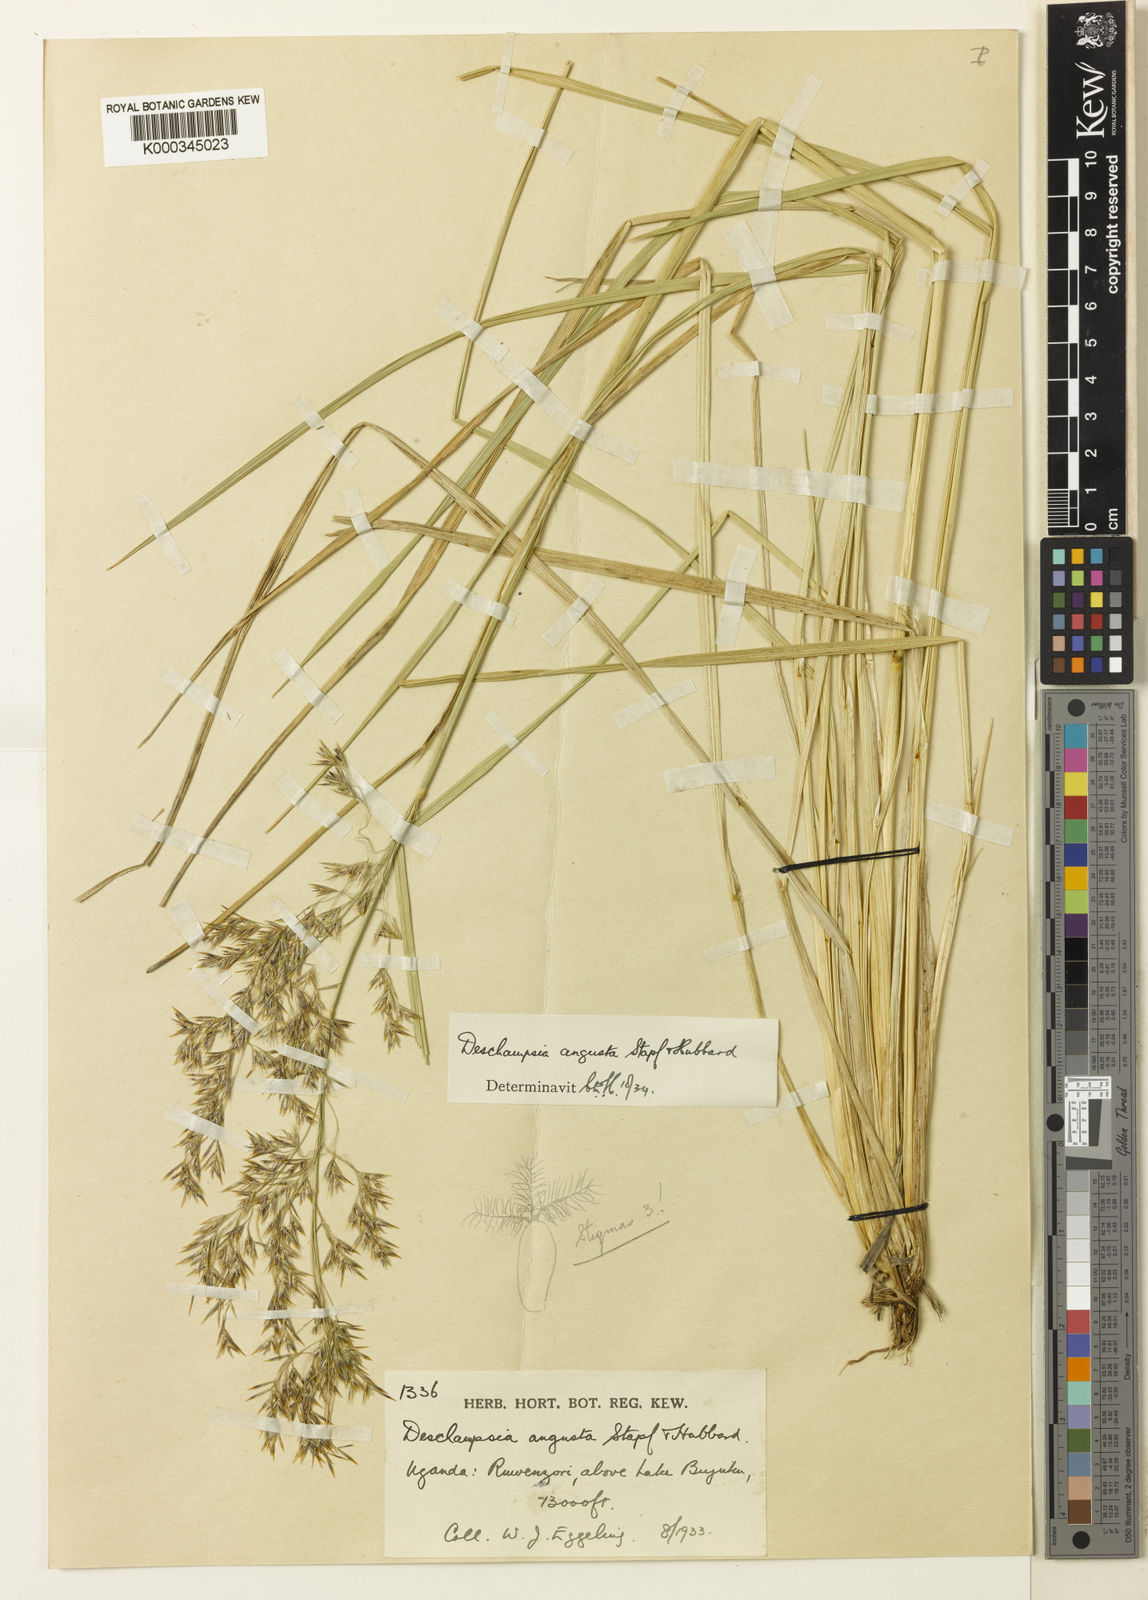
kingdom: Plantae
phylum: Tracheophyta
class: Liliopsida
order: Poales
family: Poaceae
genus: Deschampsia
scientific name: Deschampsia angusta
